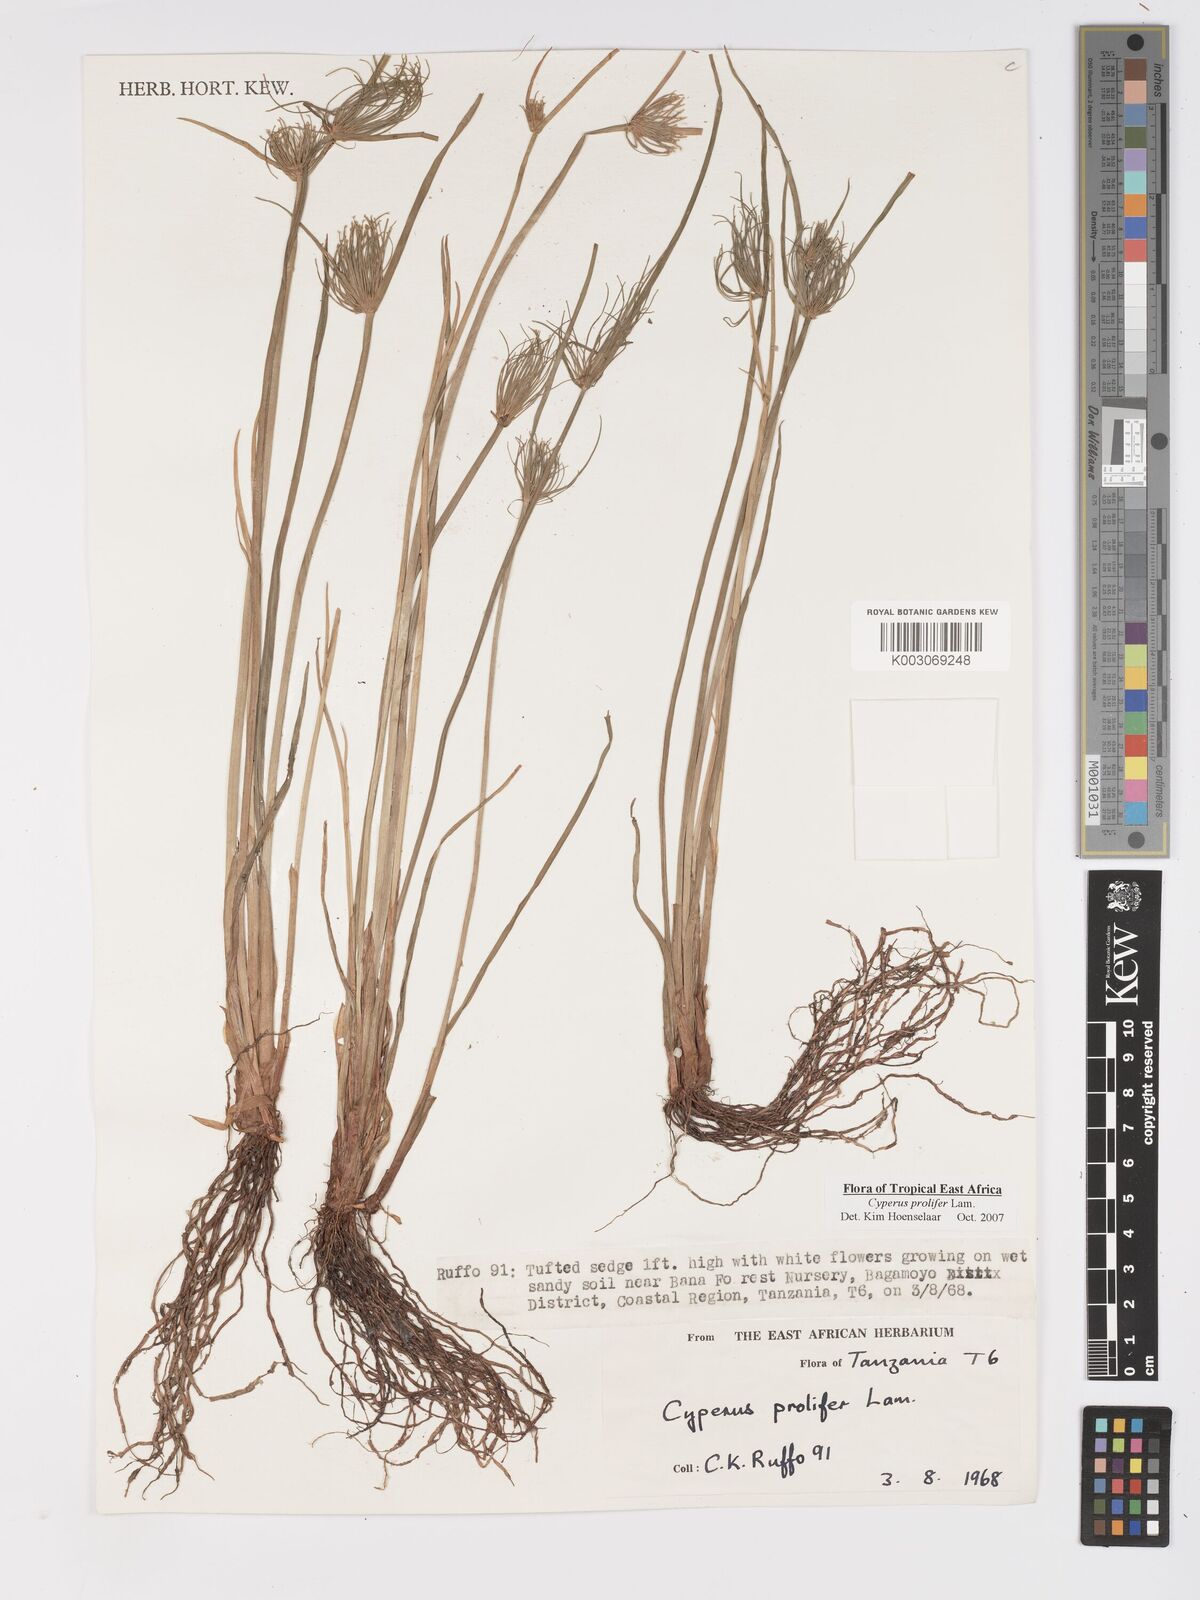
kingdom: Plantae
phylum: Tracheophyta
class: Liliopsida
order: Poales
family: Cyperaceae
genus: Cyperus
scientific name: Cyperus prolifer
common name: Miniature flatsedge
